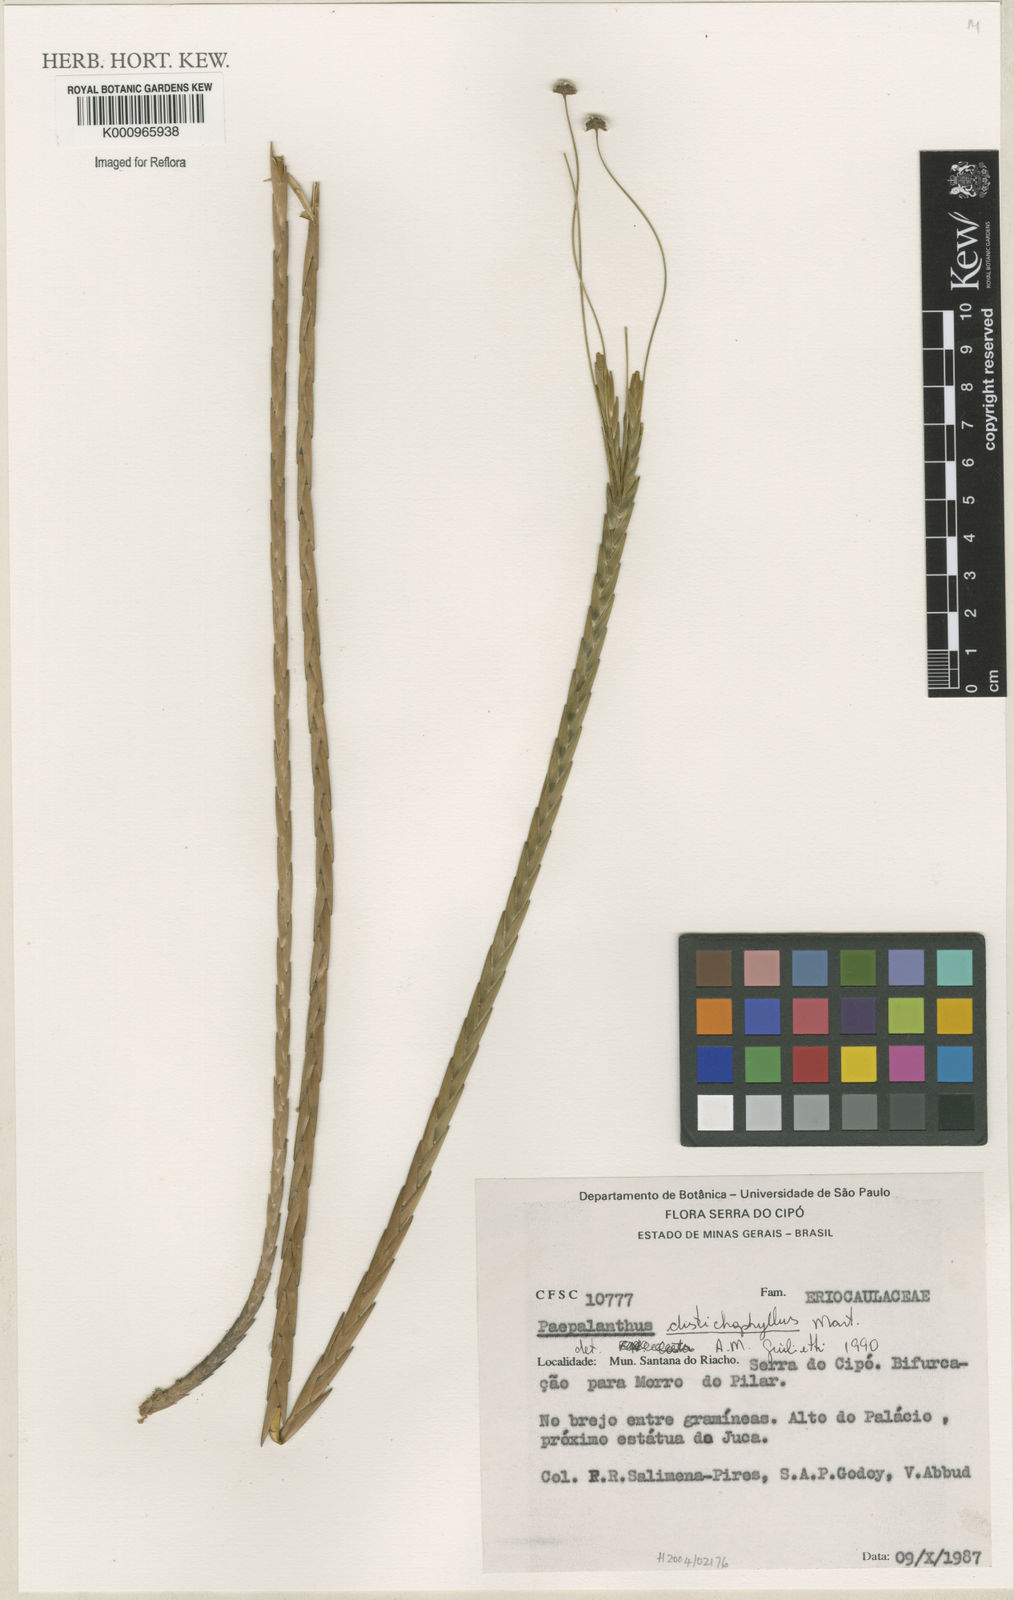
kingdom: Plantae
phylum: Tracheophyta
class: Liliopsida
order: Poales
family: Eriocaulaceae
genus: Paepalanthus
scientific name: Paepalanthus distichophyllus
